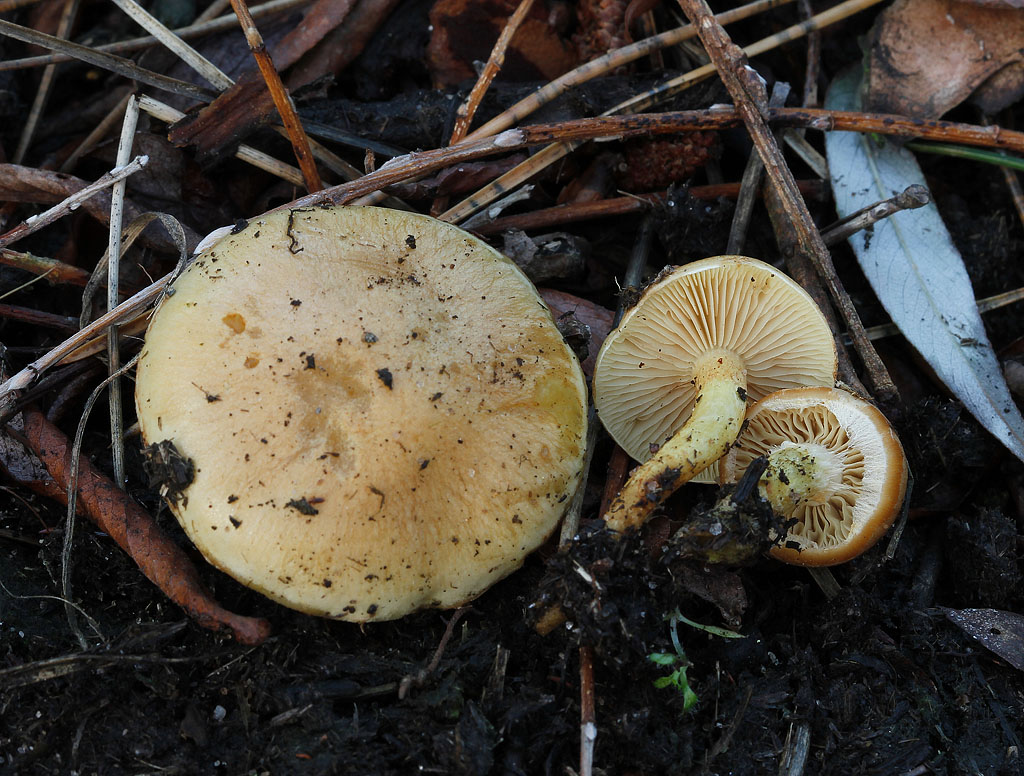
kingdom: Fungi
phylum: Basidiomycota
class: Agaricomycetes
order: Agaricales
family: Strophariaceae
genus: Pholiota
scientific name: Pholiota carbonaria
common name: kul-skælhat
